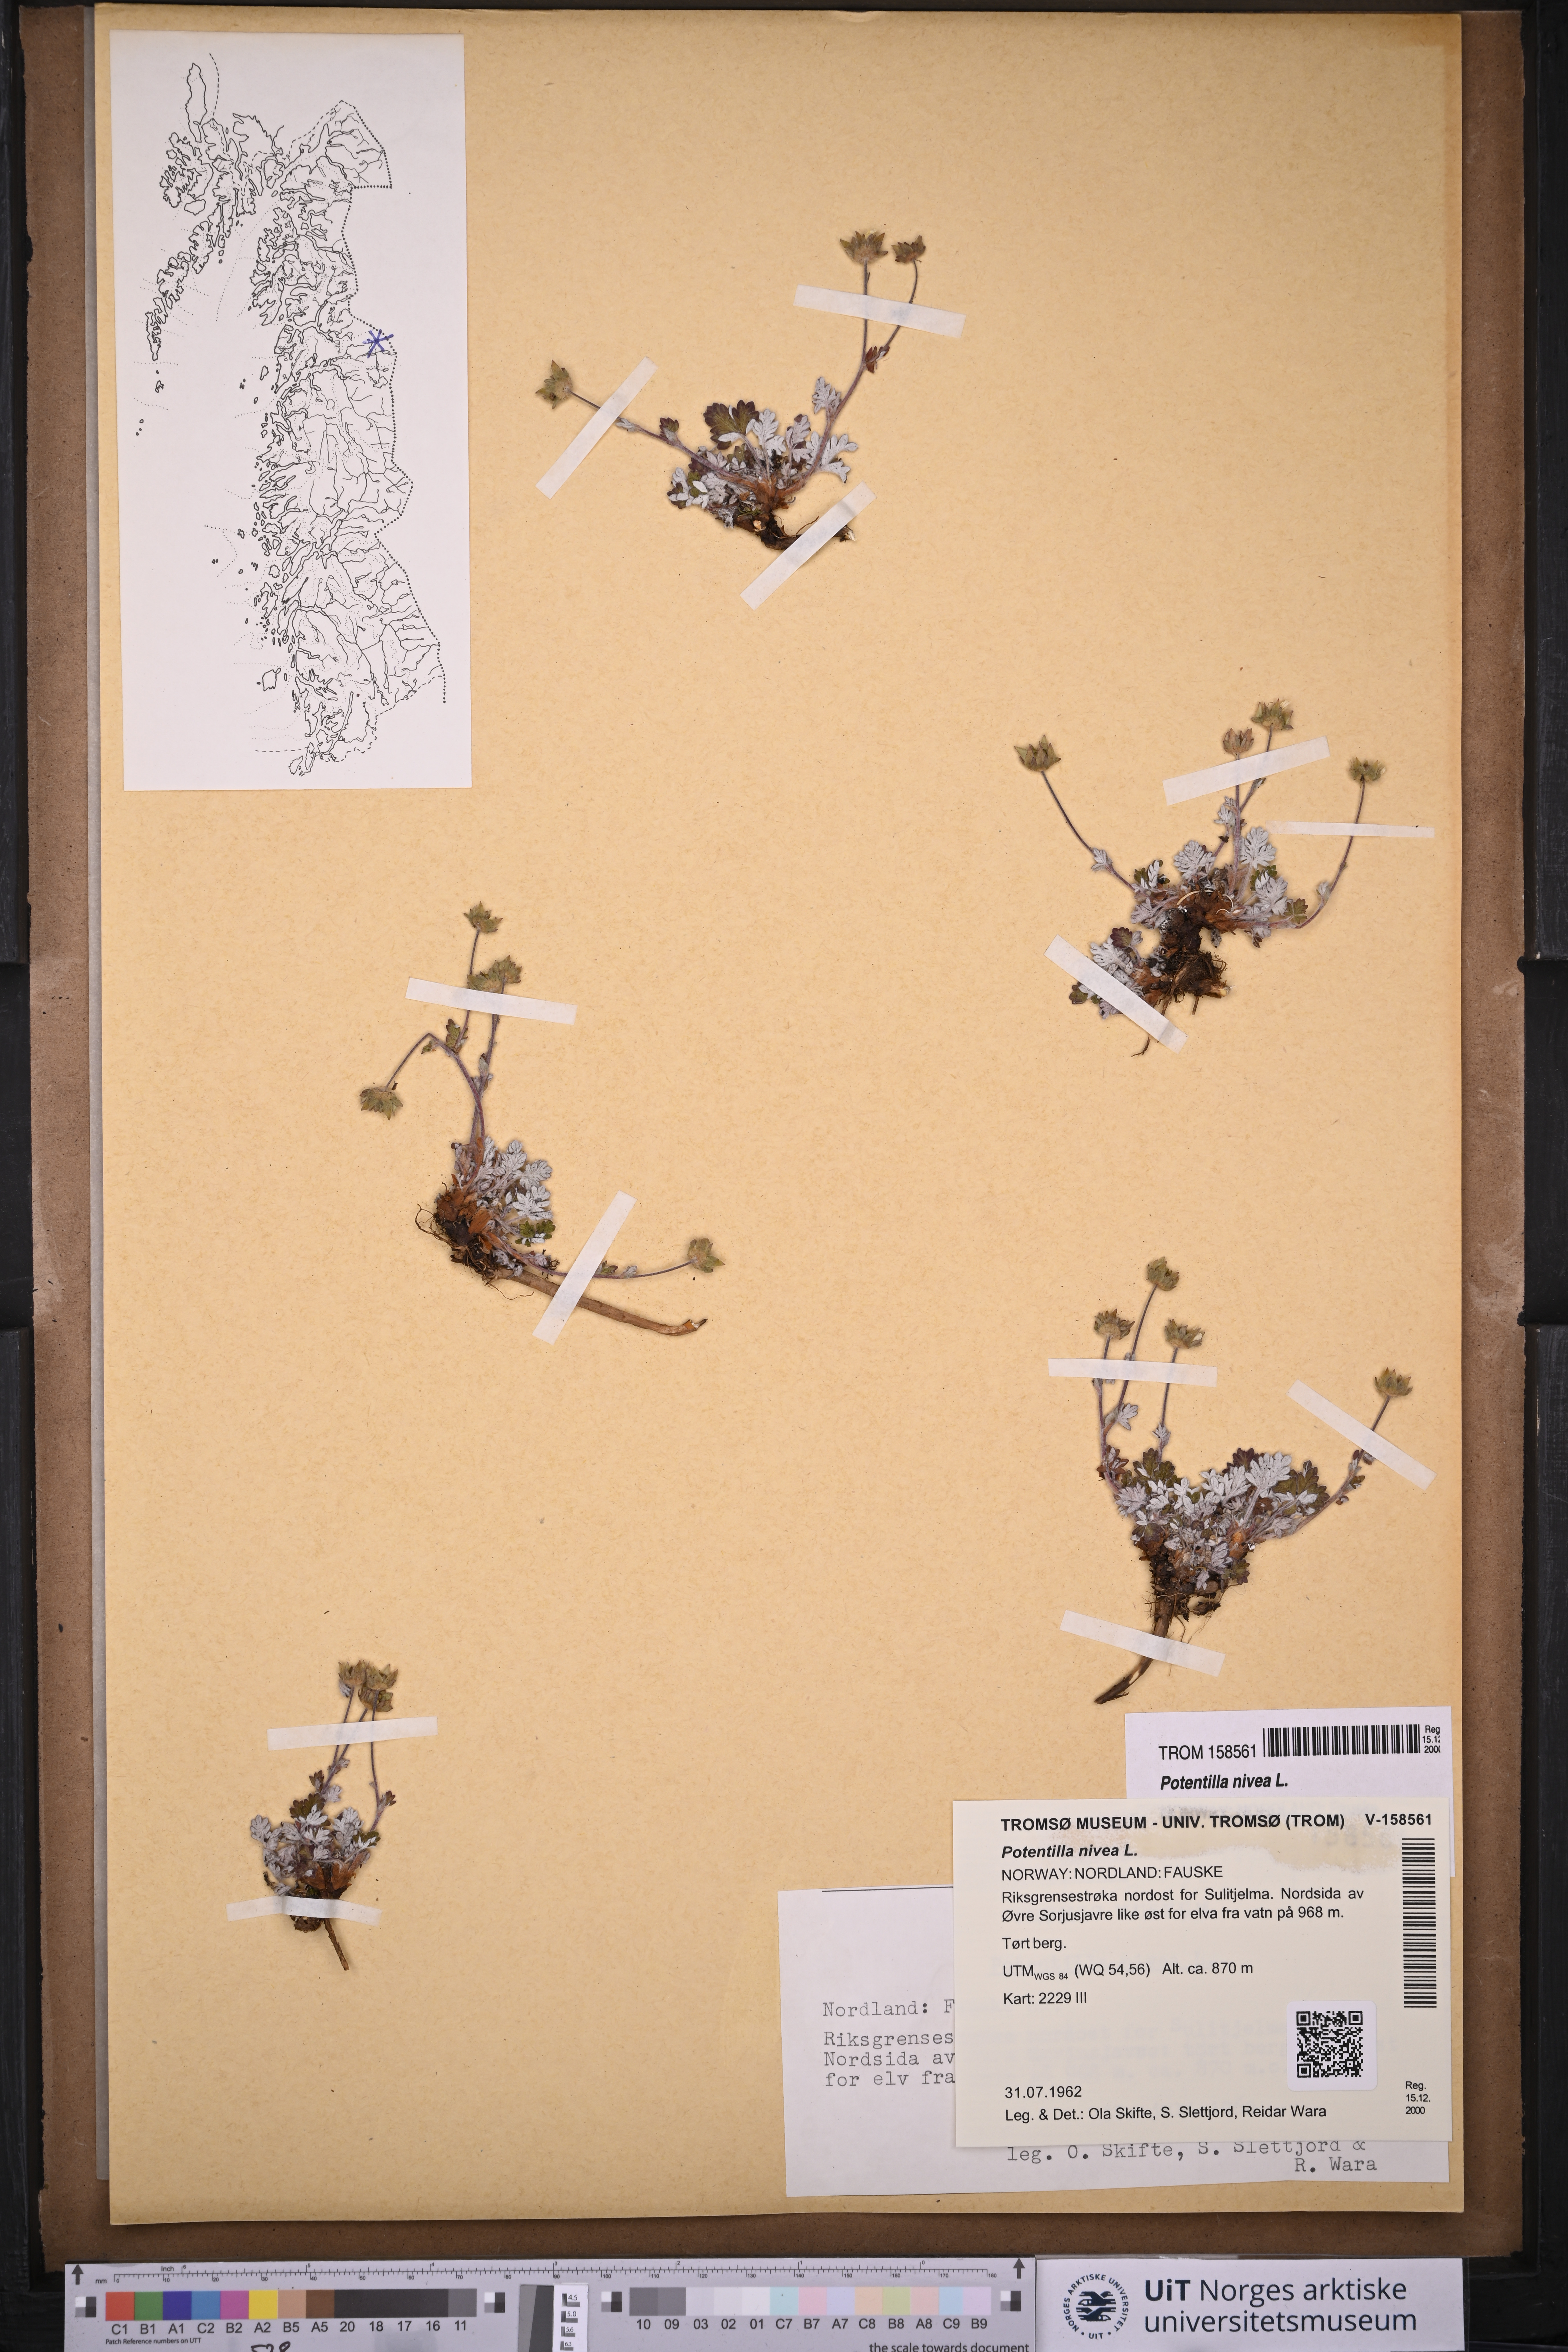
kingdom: Plantae
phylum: Tracheophyta
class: Magnoliopsida
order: Rosales
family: Rosaceae
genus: Potentilla
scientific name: Potentilla arenosa
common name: Bluff cinquefoil
